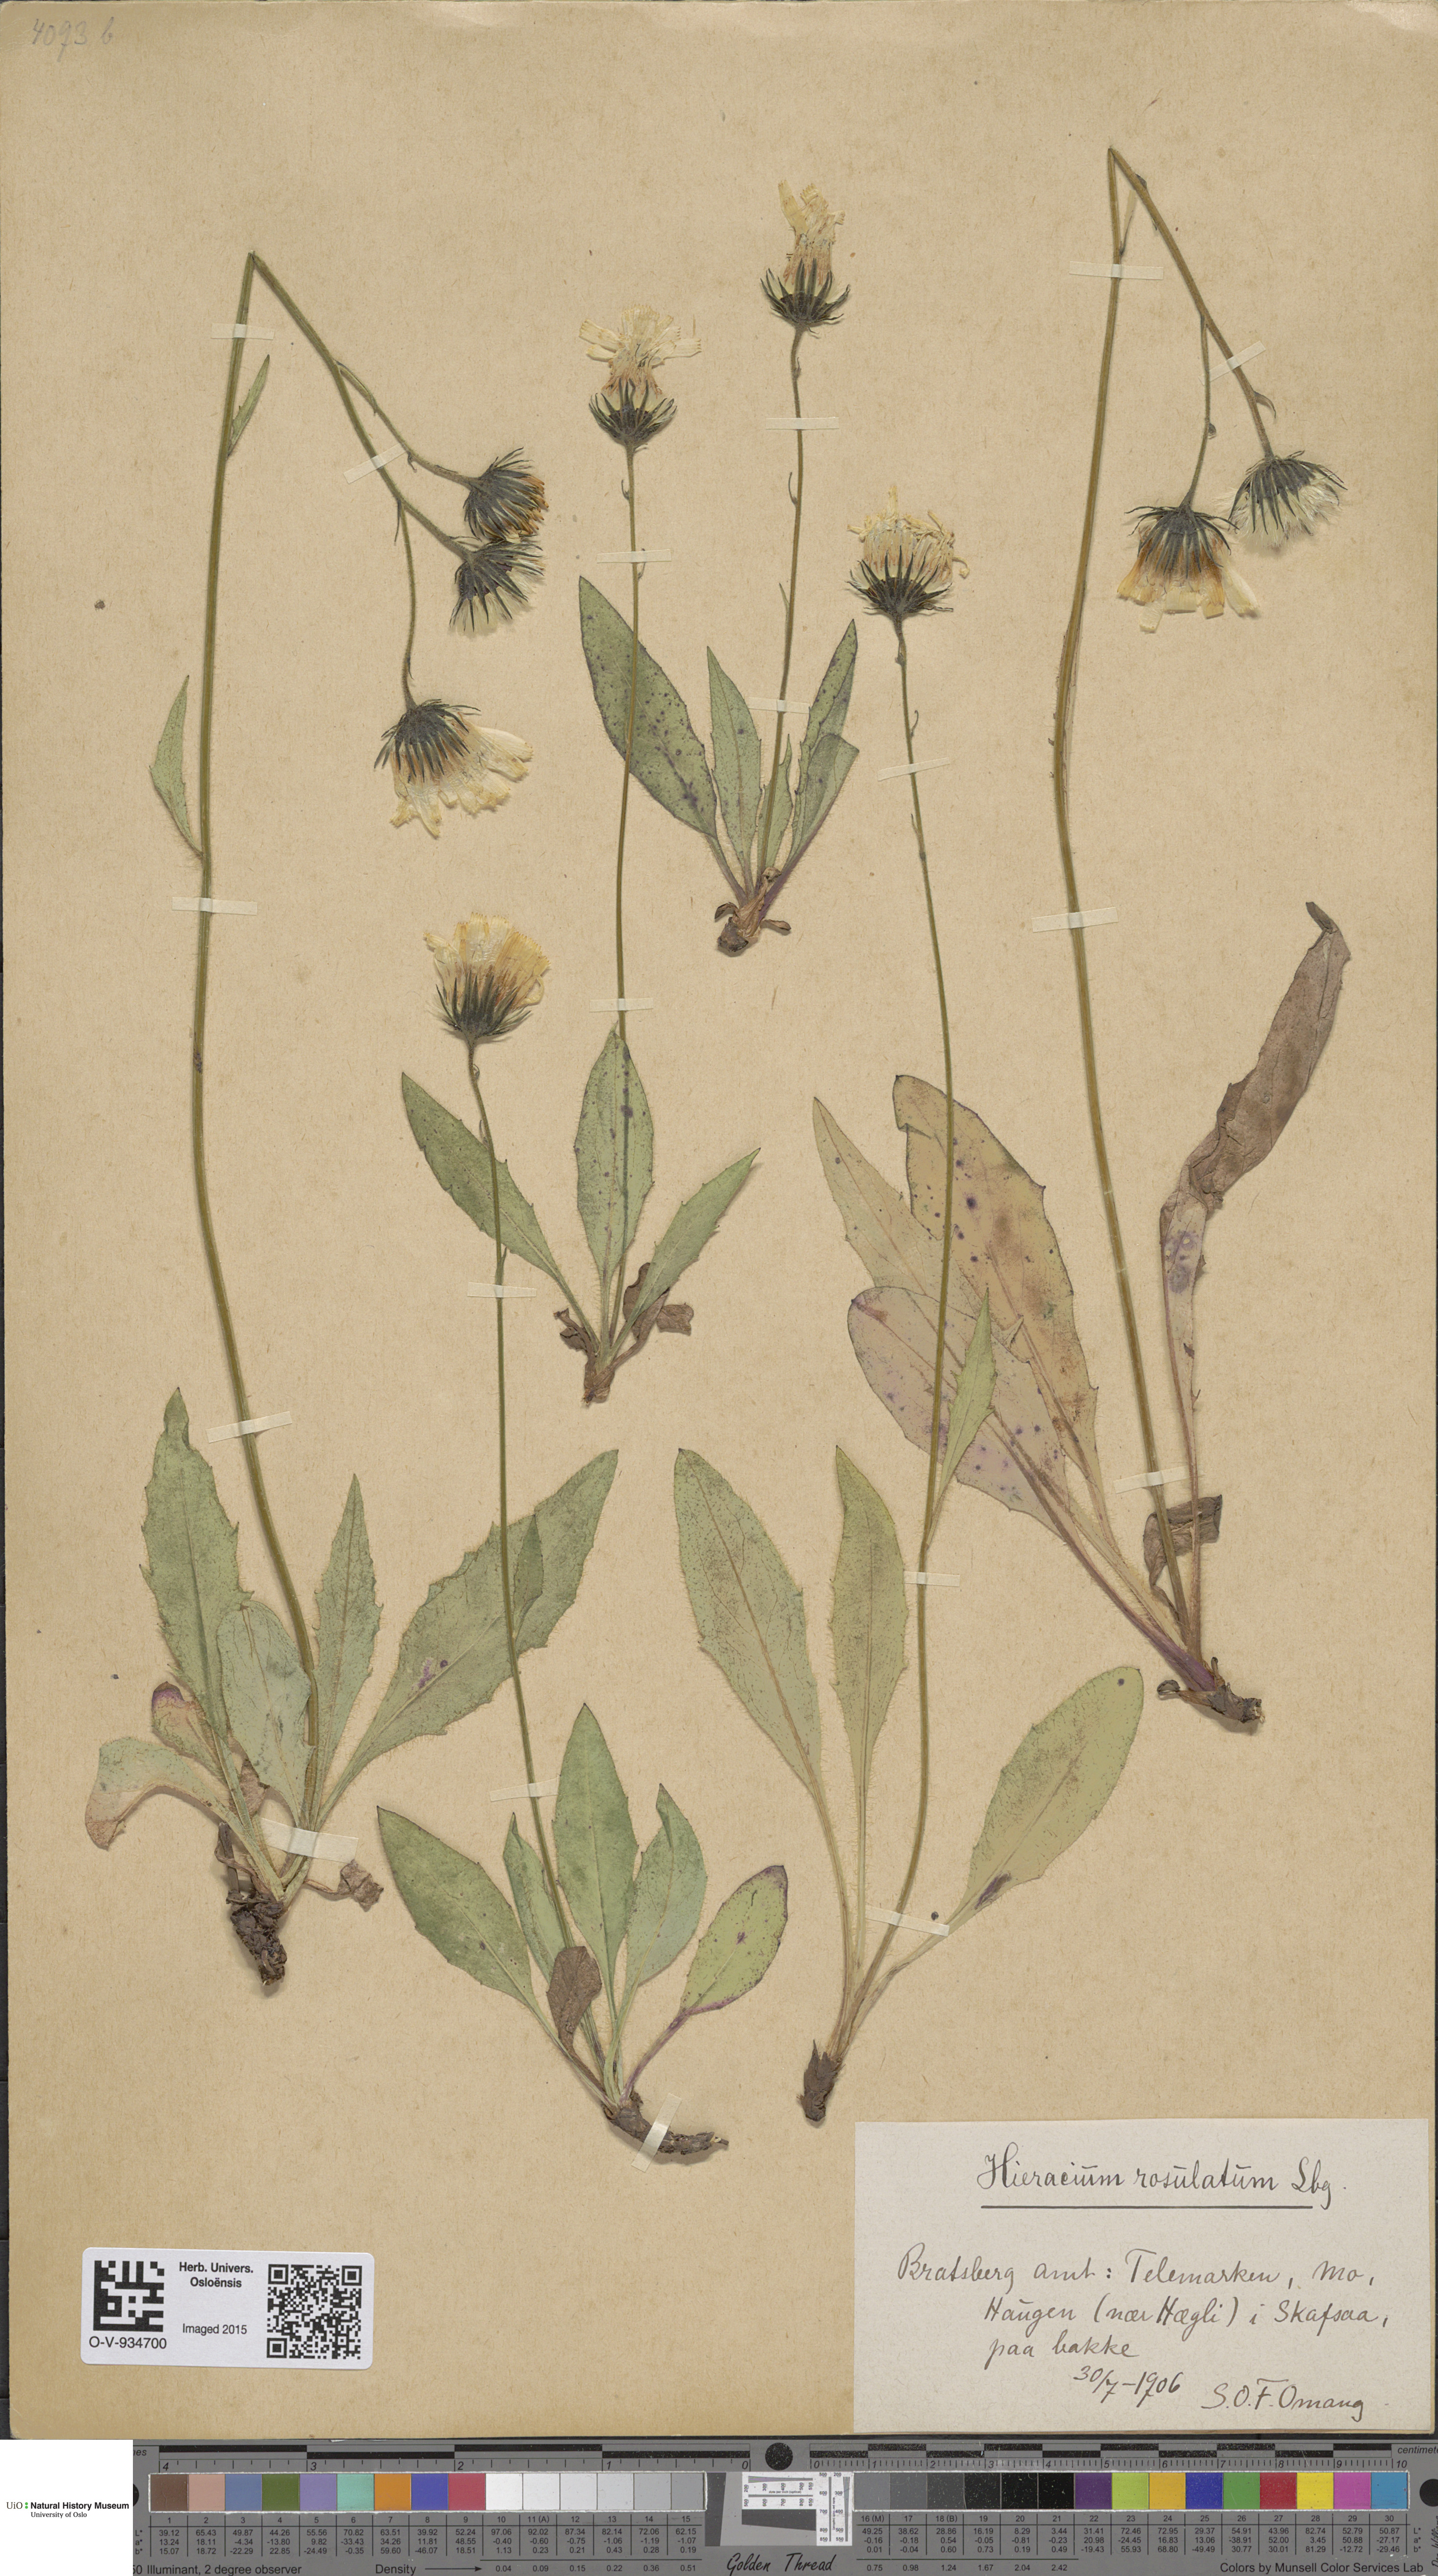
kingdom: Plantae
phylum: Tracheophyta
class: Magnoliopsida
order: Asterales
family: Asteraceae
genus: Hieracium
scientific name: Hieracium rosulatum
